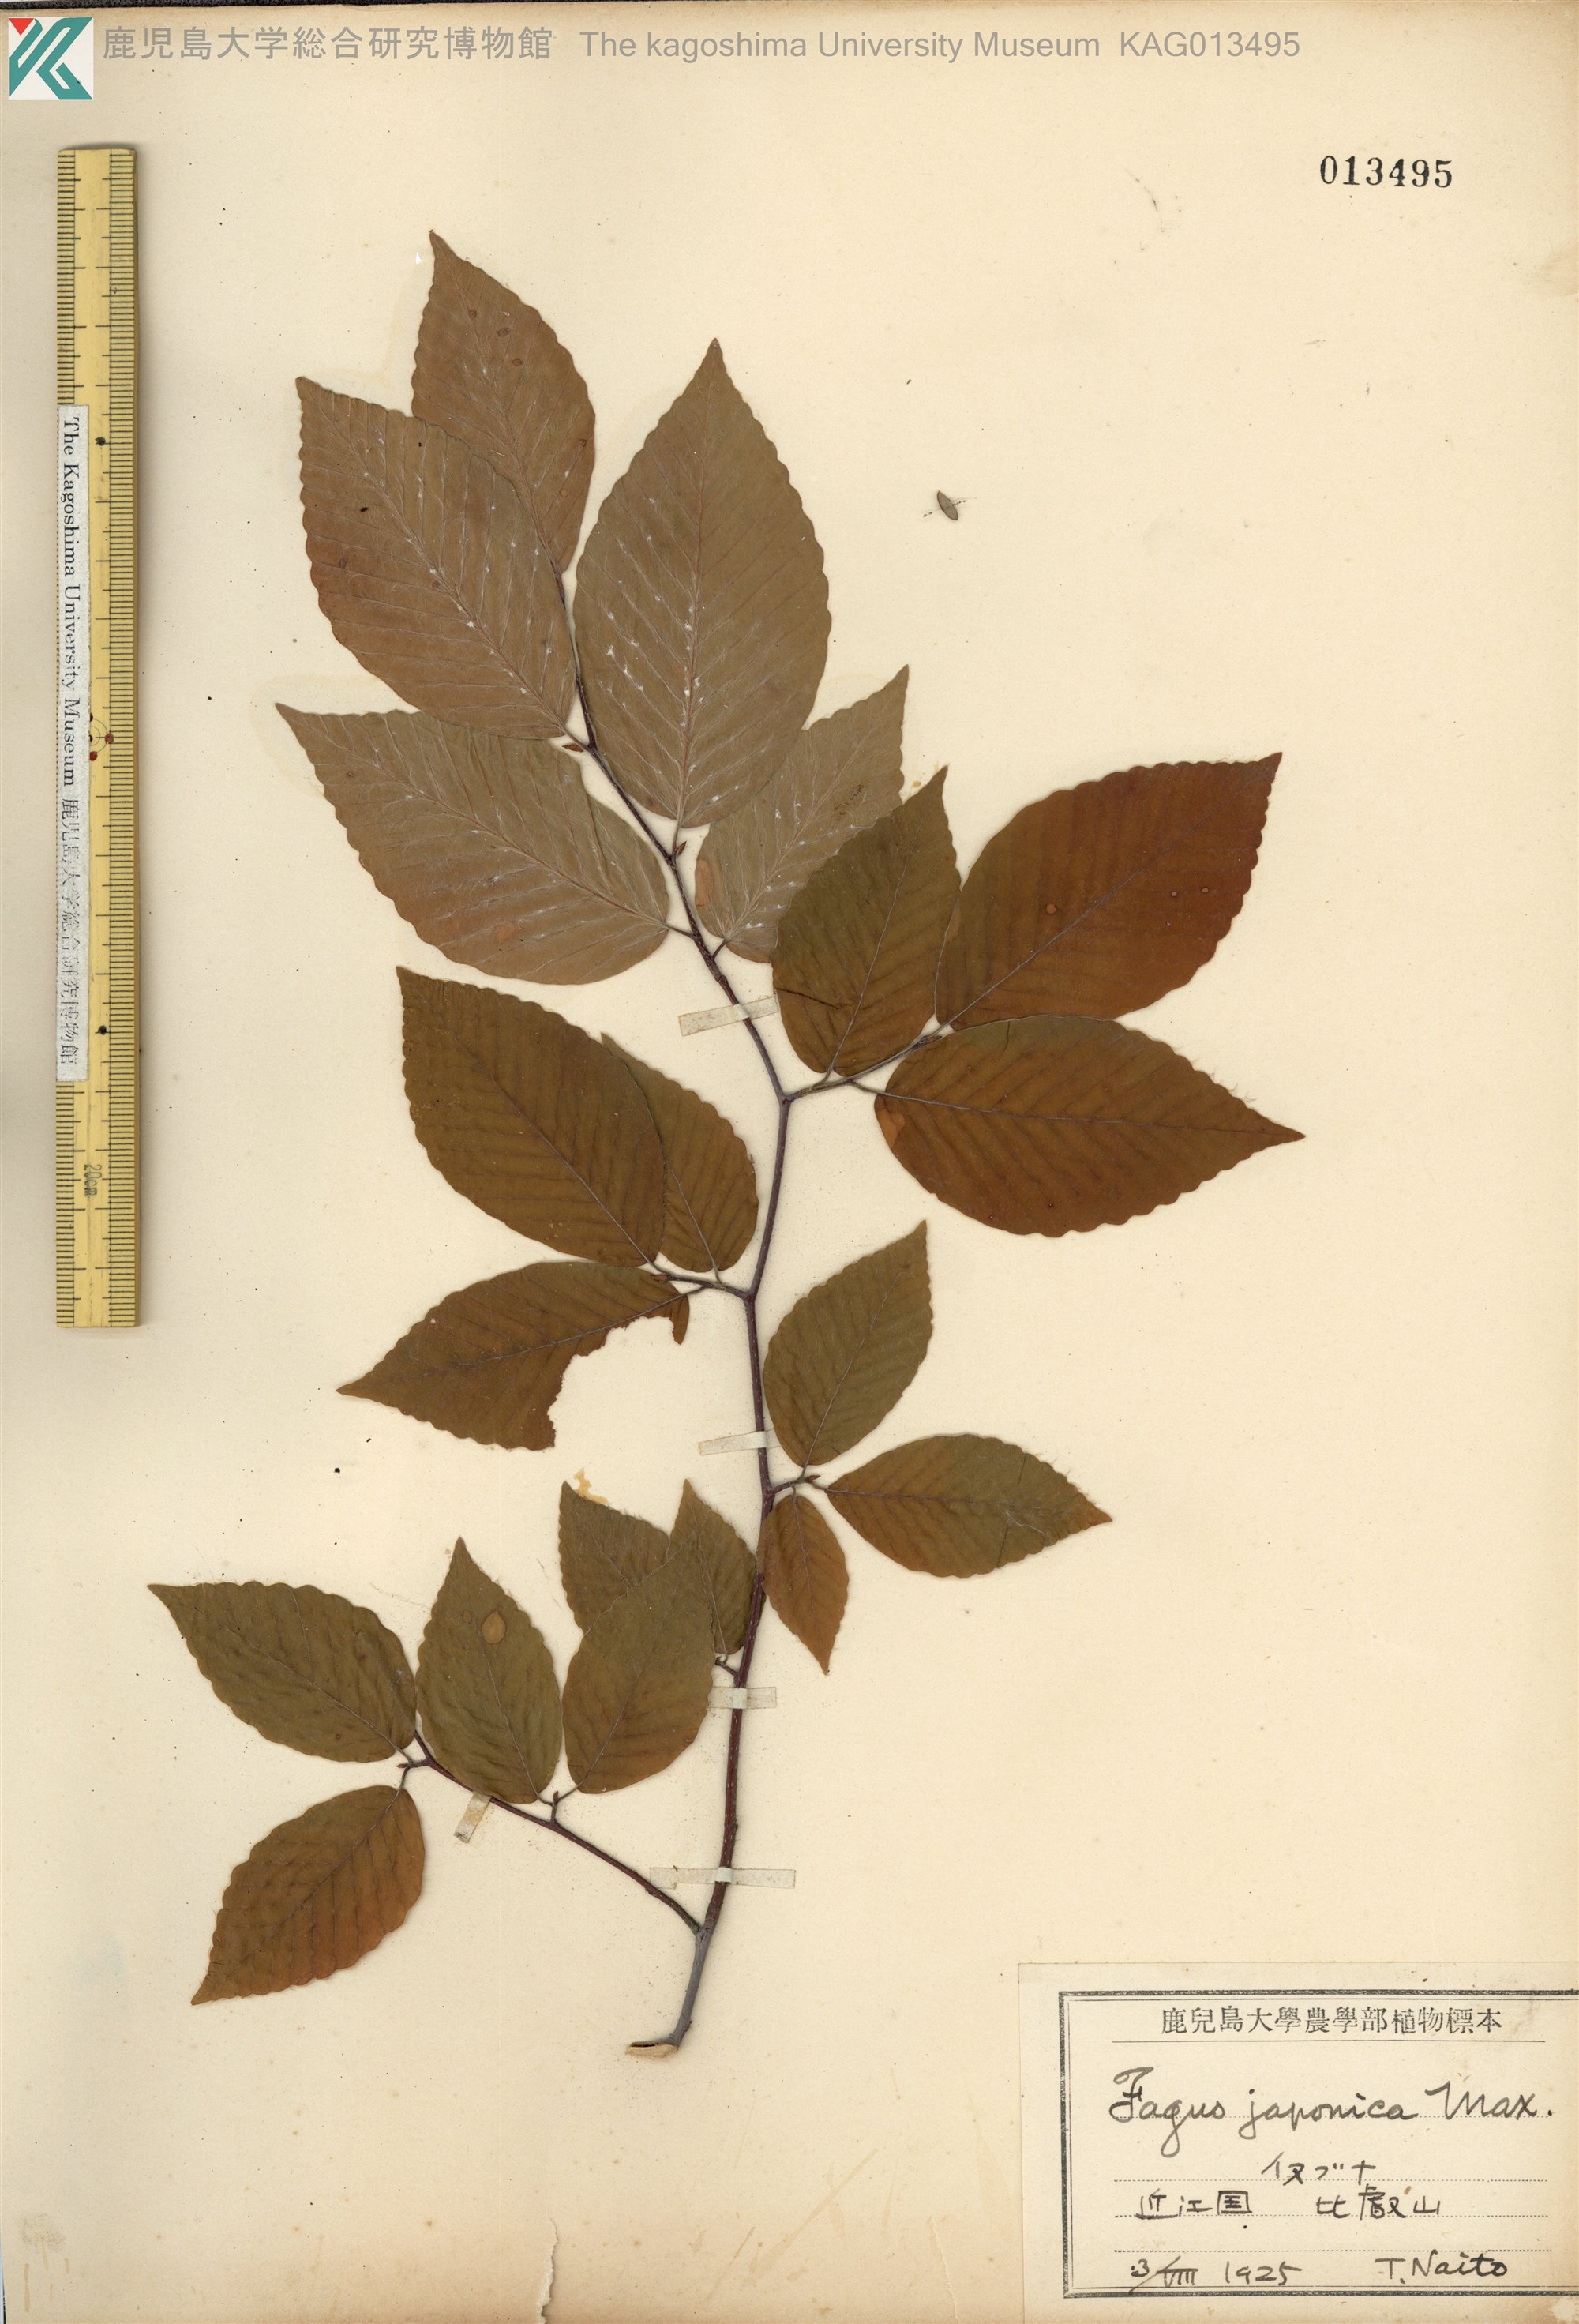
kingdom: Plantae
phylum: Tracheophyta
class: Magnoliopsida
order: Fagales
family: Fagaceae
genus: Fagus
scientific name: Fagus japonica
